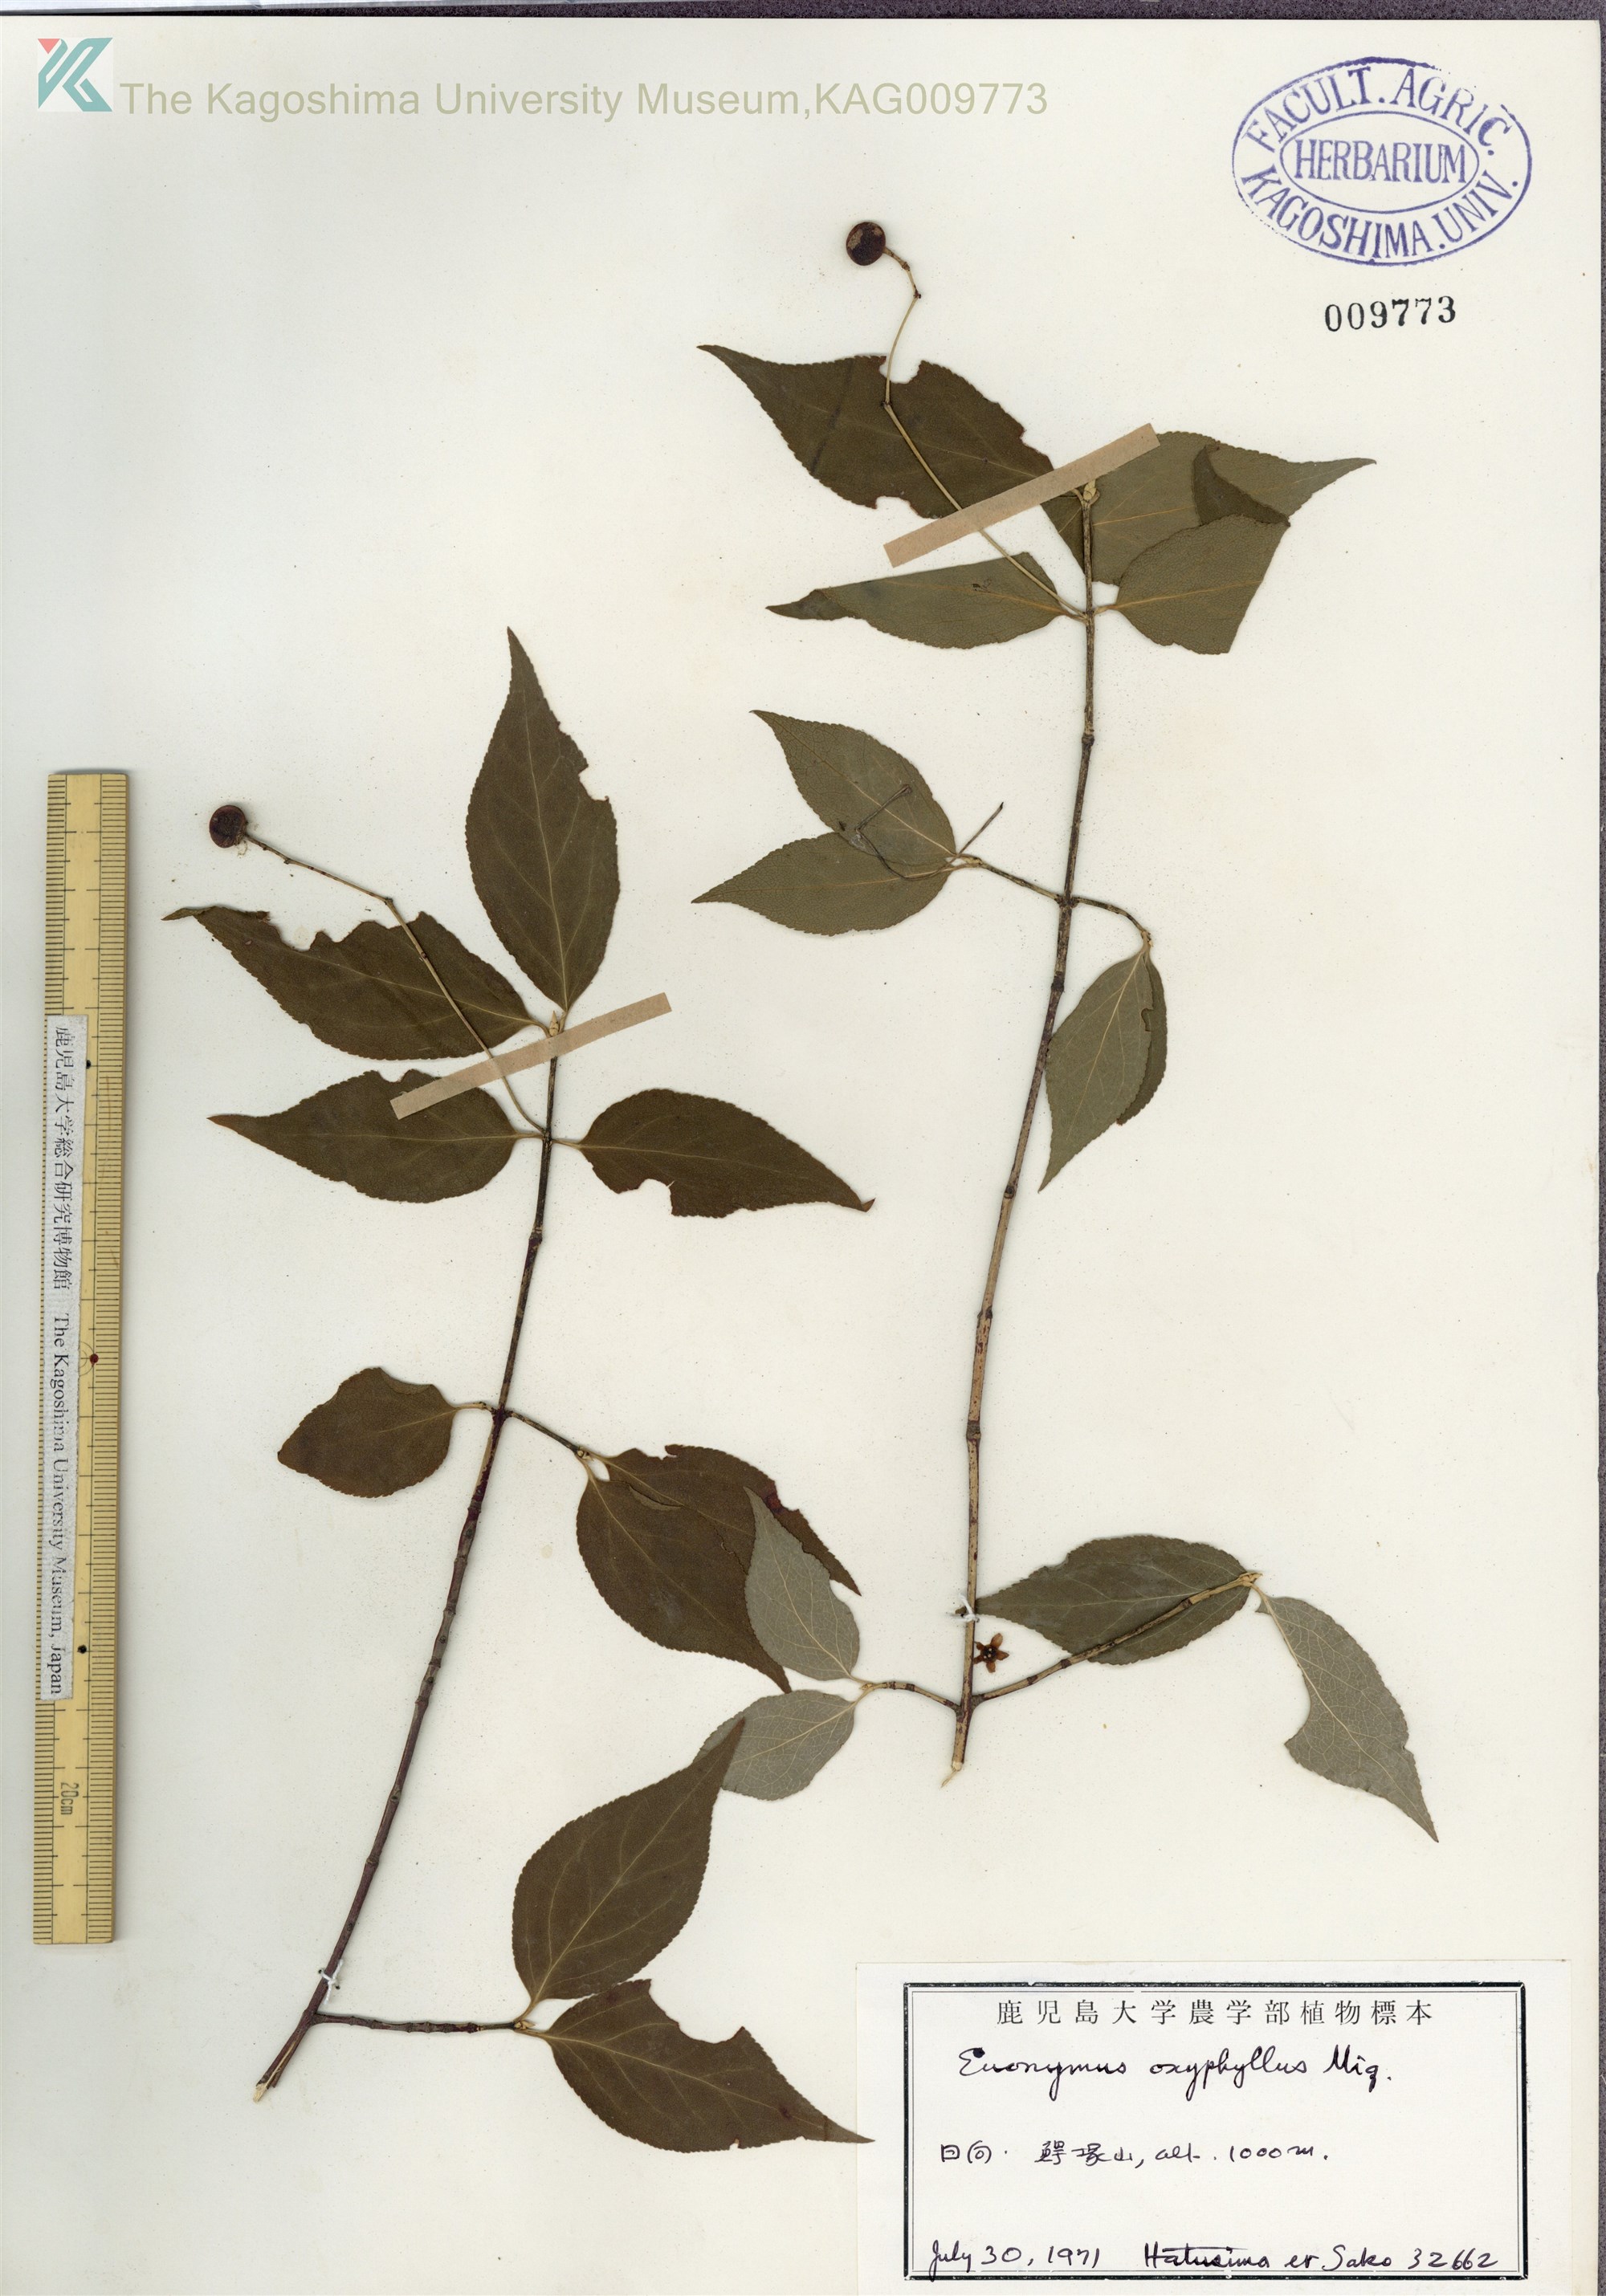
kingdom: Plantae
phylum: Tracheophyta
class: Magnoliopsida
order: Celastrales
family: Celastraceae
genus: Euonymus
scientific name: Euonymus oxyphyllus
